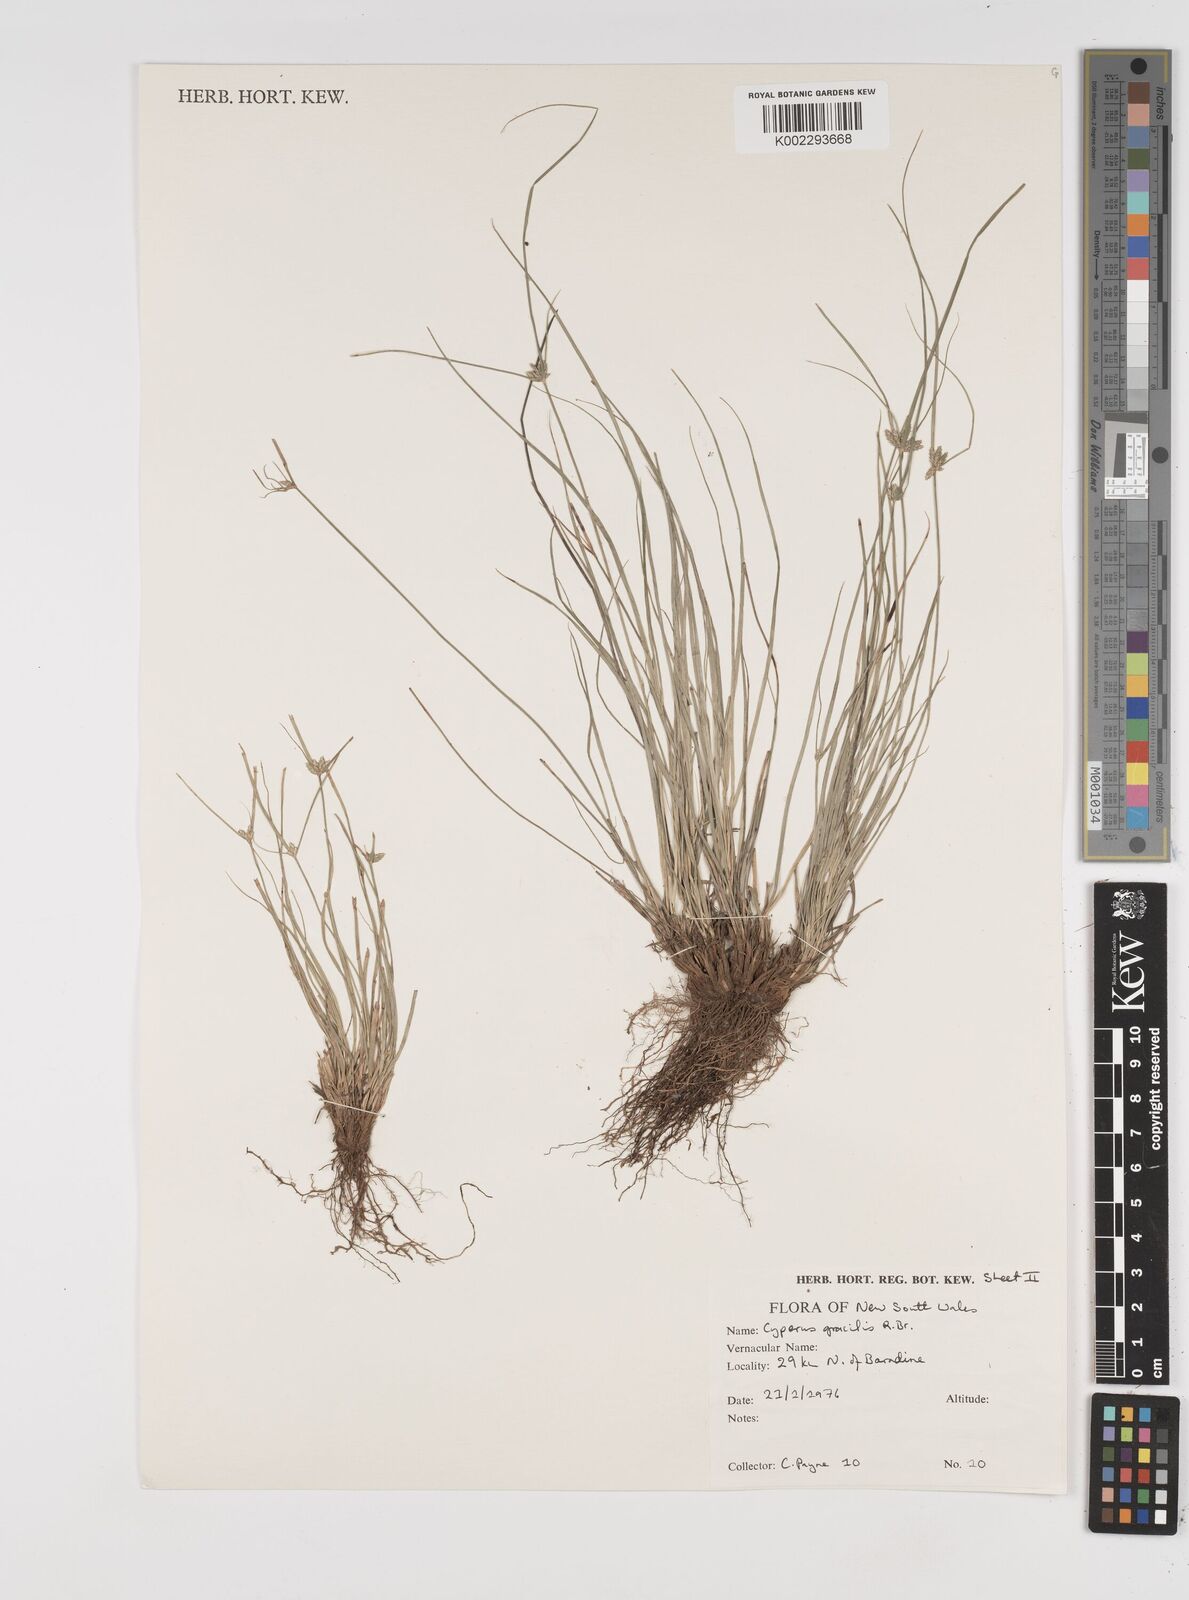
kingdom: Plantae
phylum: Tracheophyta
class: Liliopsida
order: Poales
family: Cyperaceae
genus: Cyperus
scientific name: Cyperus gracilis
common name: Slimjim flatsedge
